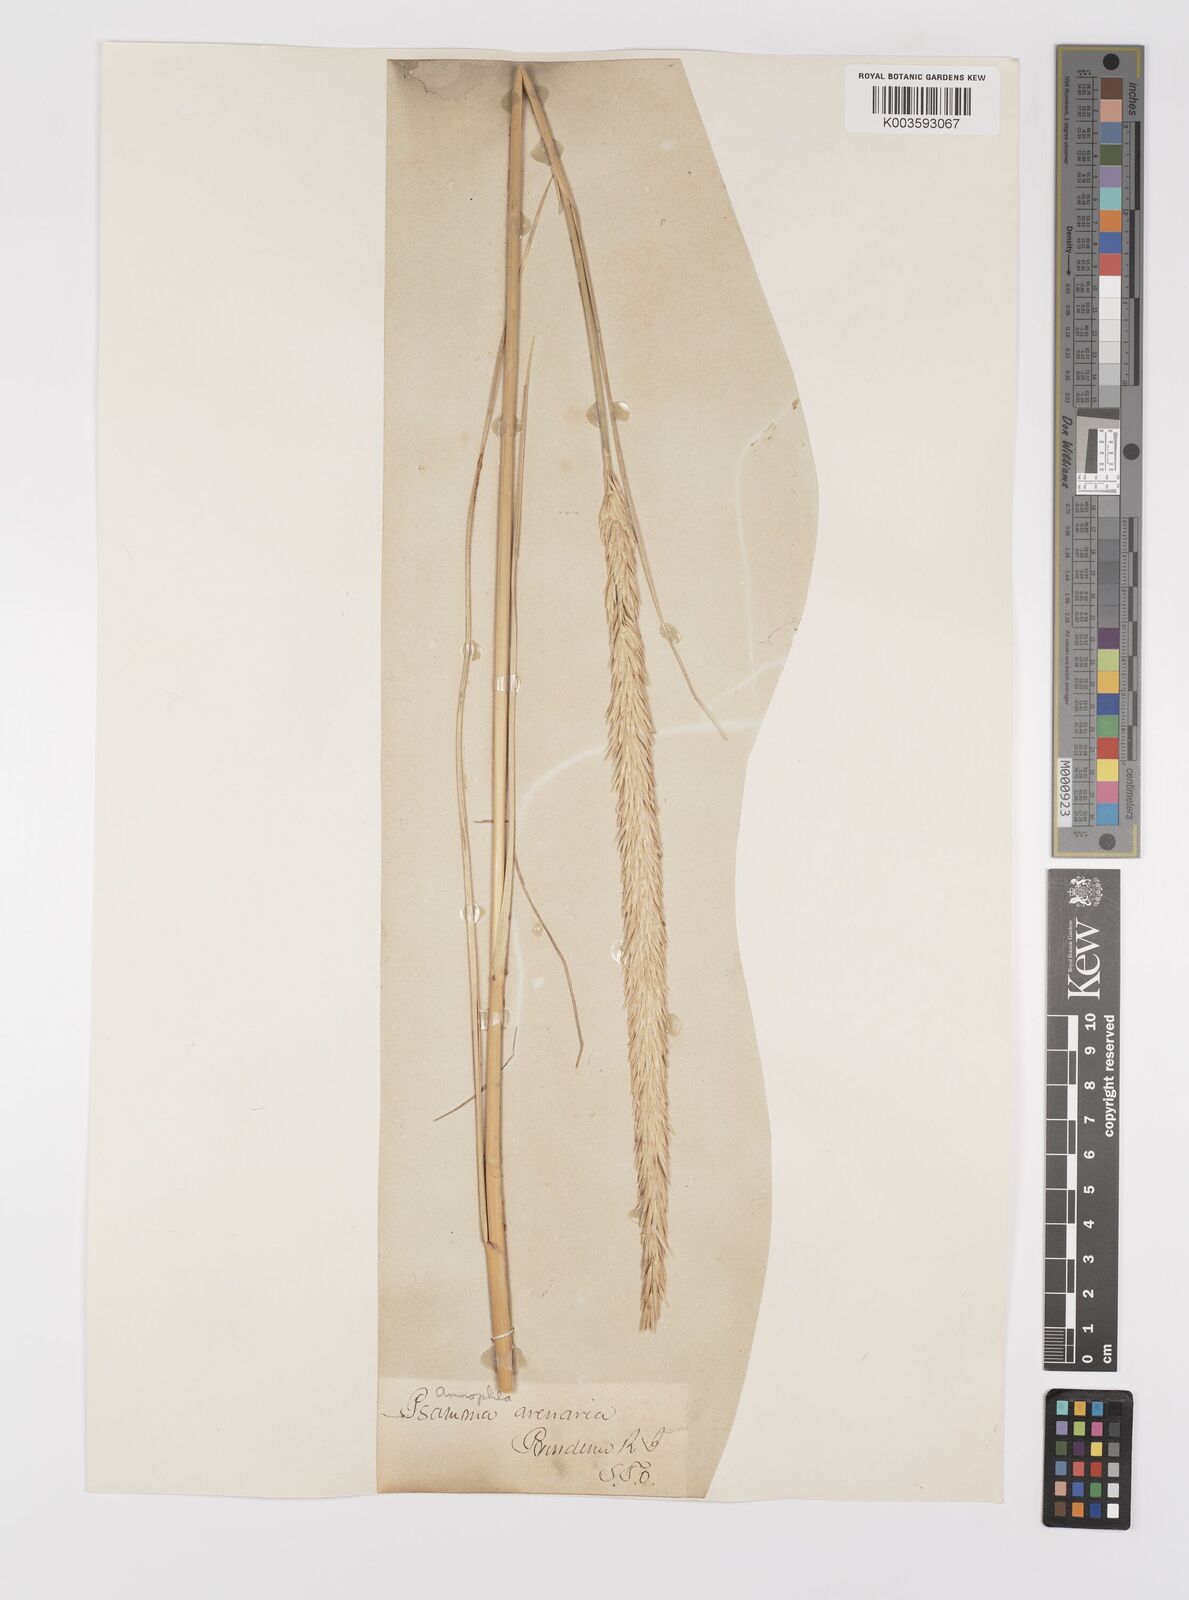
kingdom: Plantae
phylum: Tracheophyta
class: Liliopsida
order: Poales
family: Poaceae
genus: Calamagrostis
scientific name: Calamagrostis breviligulata
